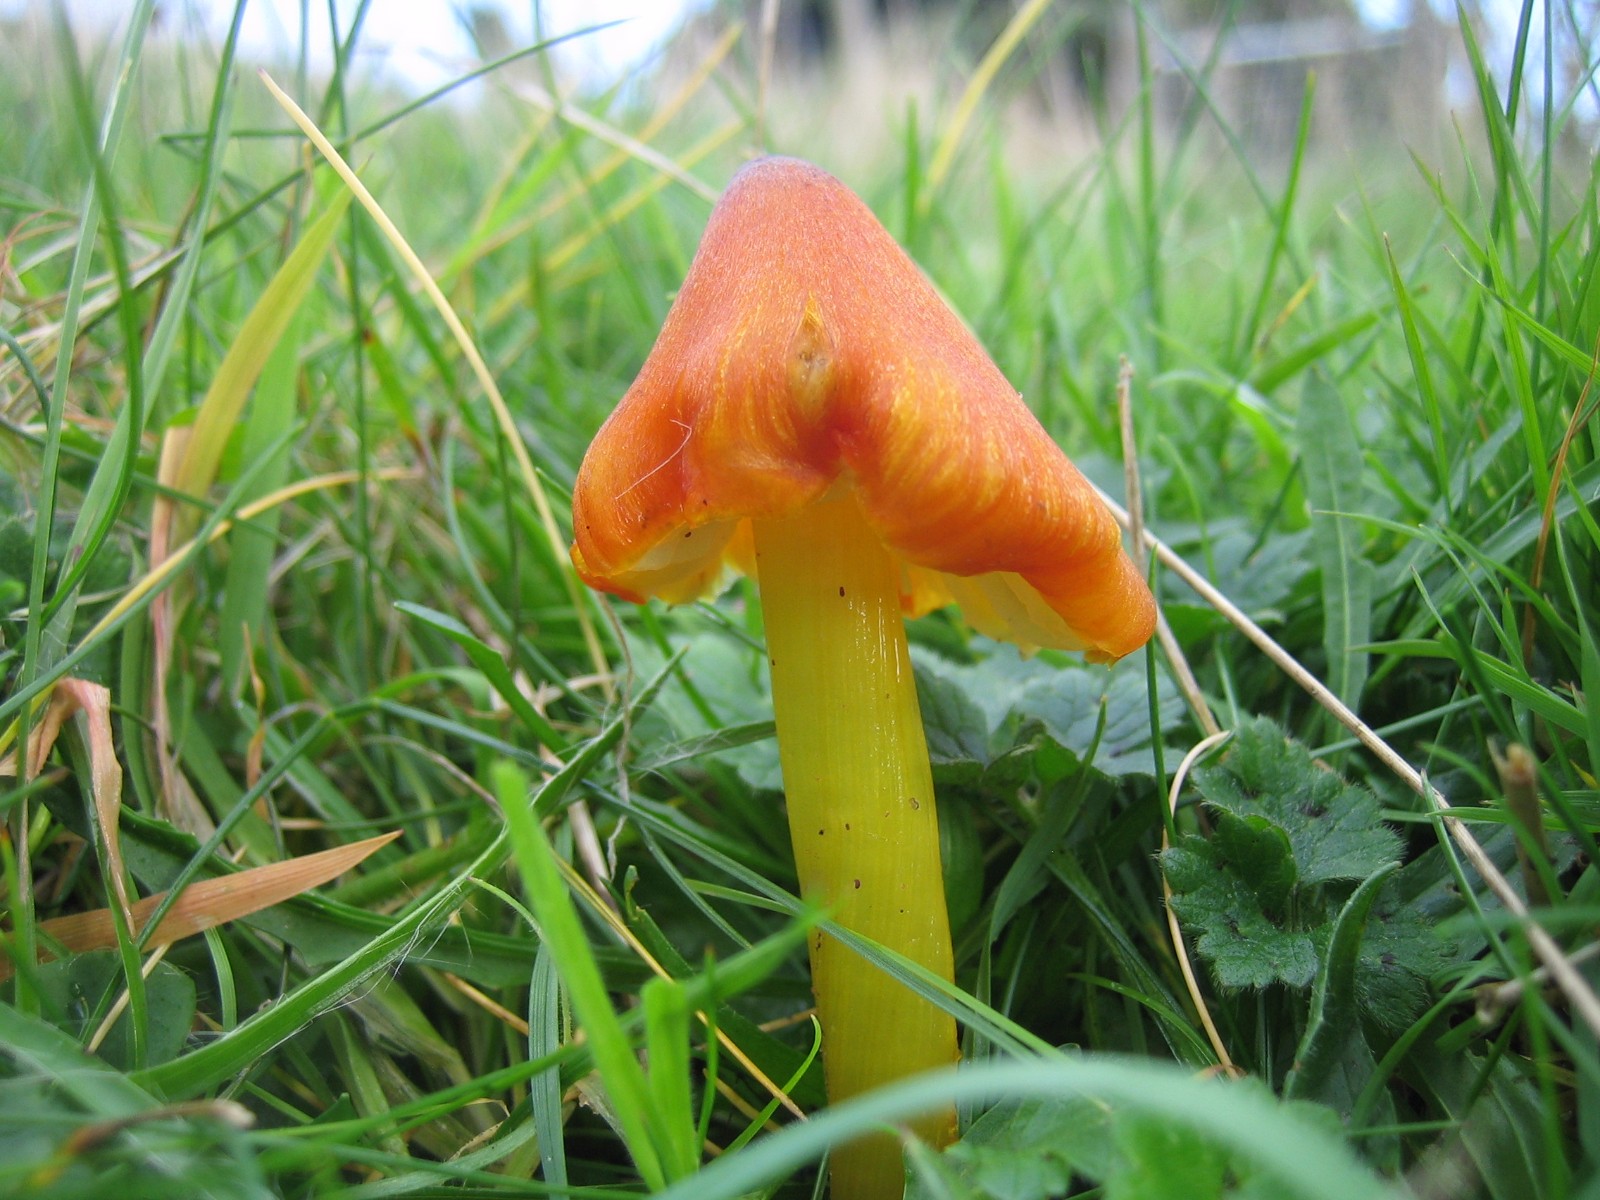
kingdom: Fungi
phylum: Basidiomycota
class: Agaricomycetes
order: Agaricales
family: Hygrophoraceae
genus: Hygrocybe
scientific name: Hygrocybe conica
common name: kegle-vokshat
